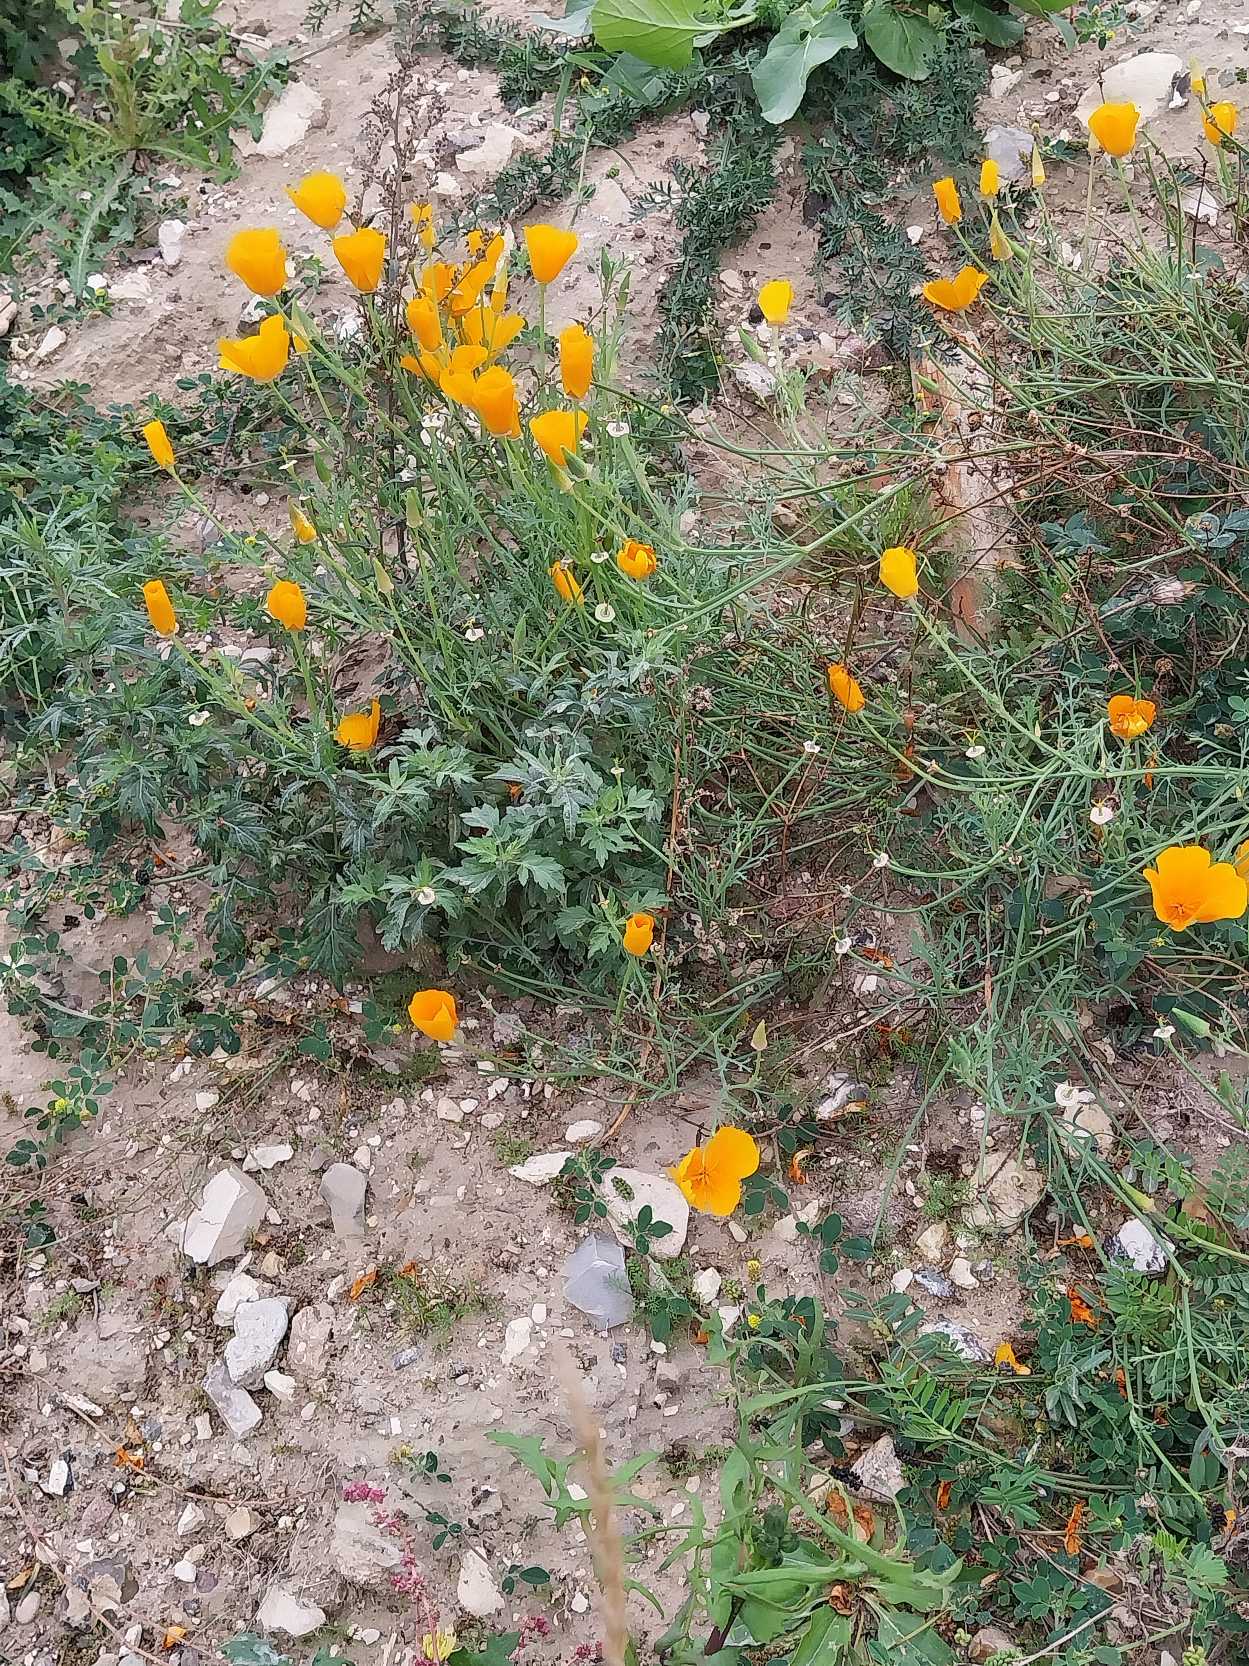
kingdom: Plantae
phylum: Tracheophyta
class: Magnoliopsida
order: Ranunculales
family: Papaveraceae
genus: Eschscholzia
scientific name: Eschscholzia californica
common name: Guldvalmue
